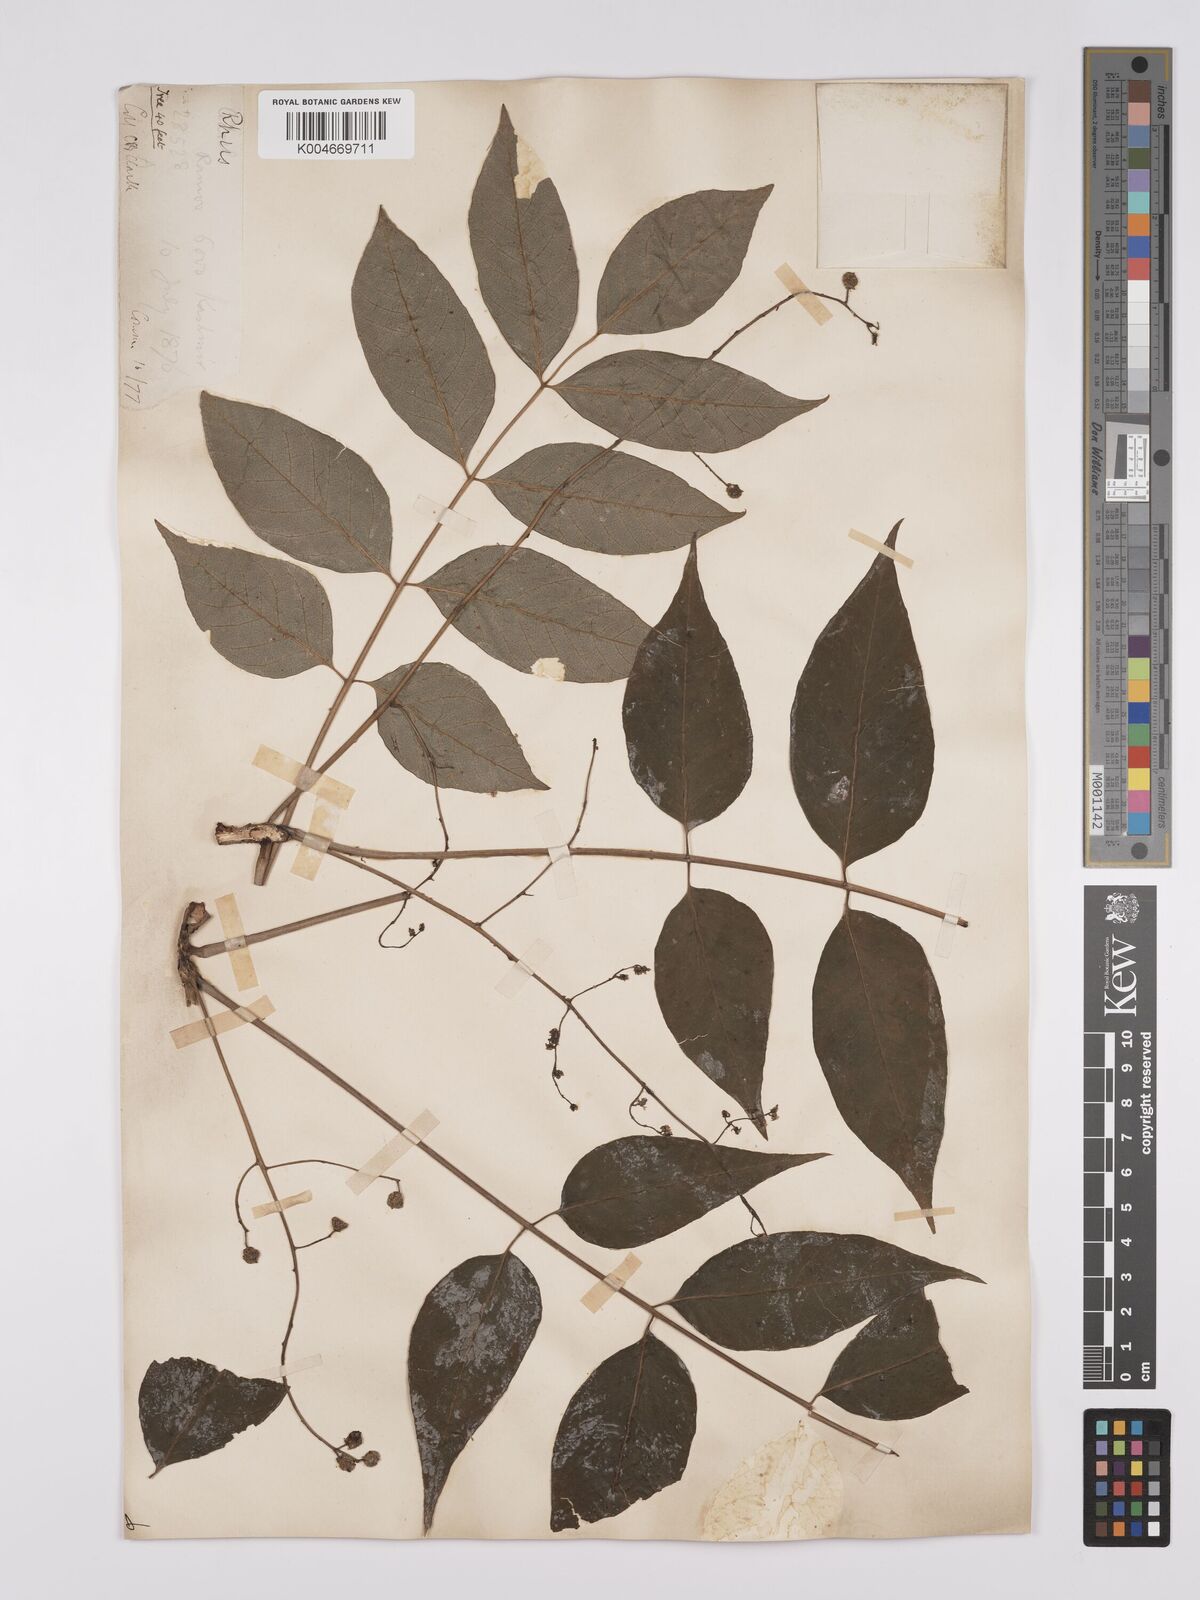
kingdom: Plantae
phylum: Tracheophyta
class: Magnoliopsida
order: Sapindales
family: Anacardiaceae
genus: Toxicodendron
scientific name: Toxicodendron succedaneum
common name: Wax tree
